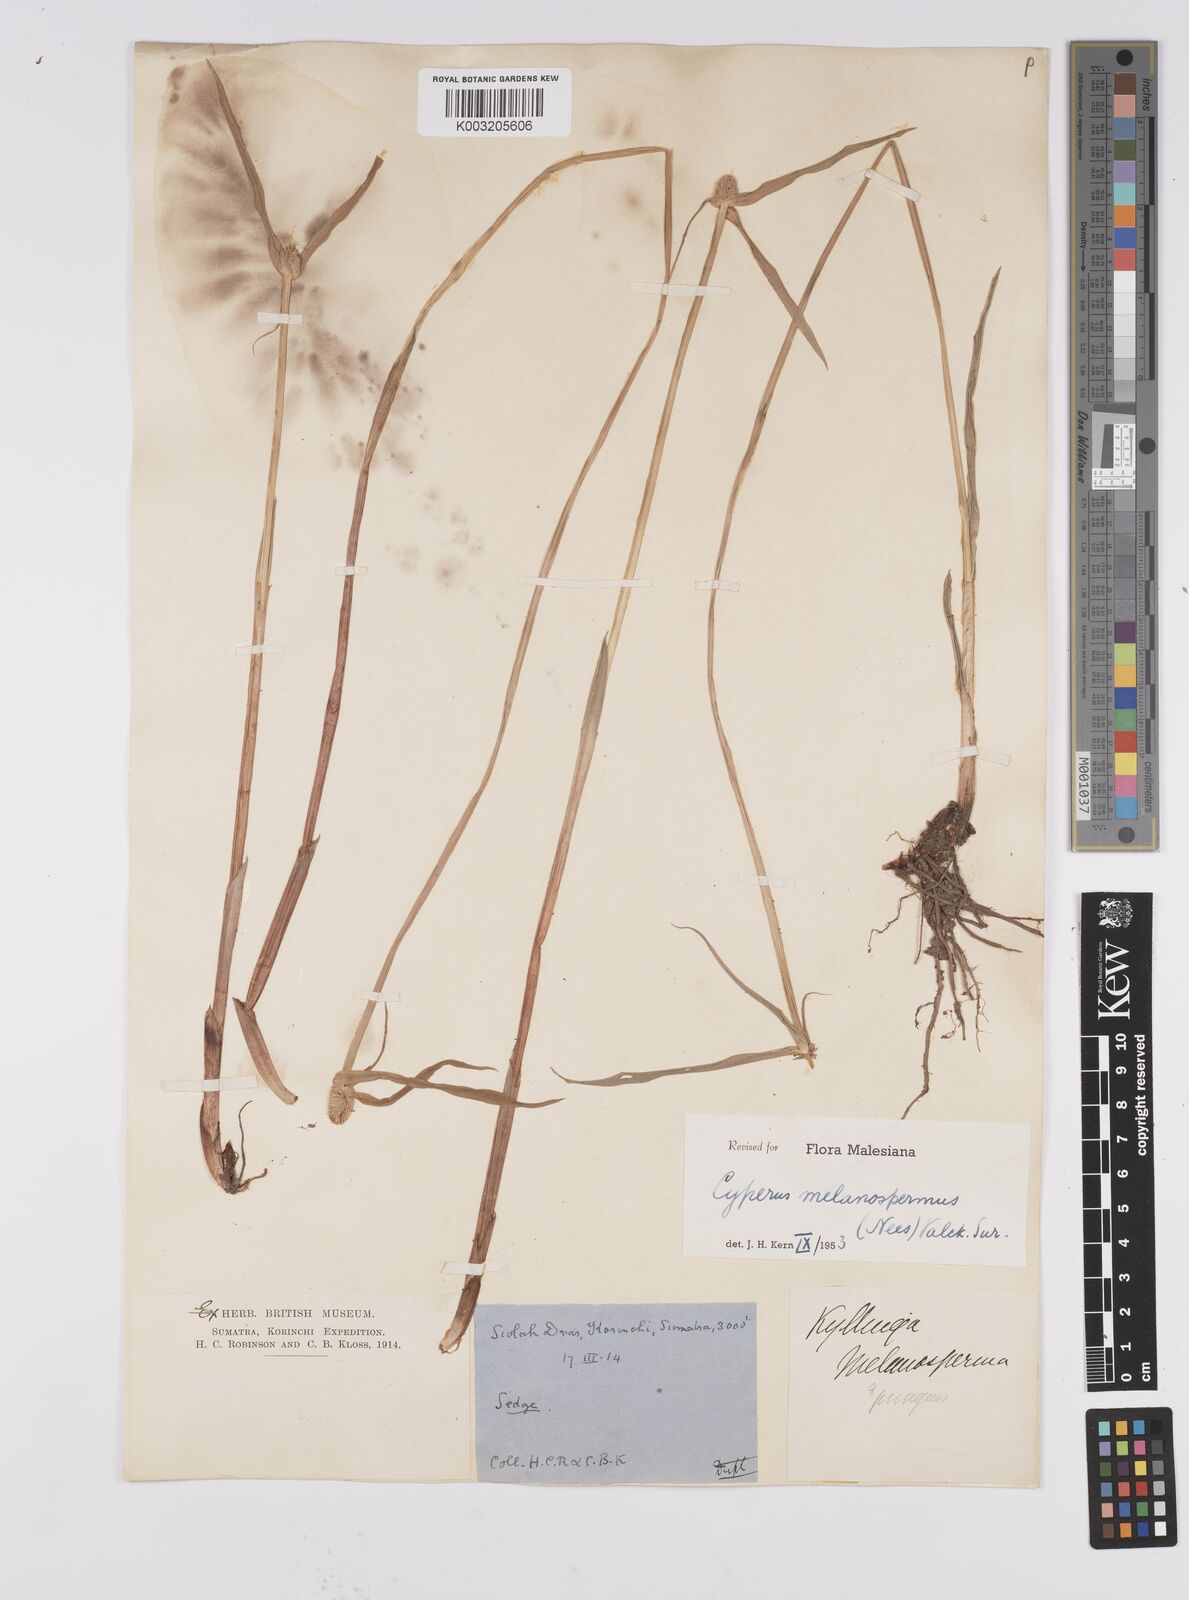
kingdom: Plantae
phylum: Tracheophyta
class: Liliopsida
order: Poales
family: Cyperaceae
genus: Cyperus
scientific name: Cyperus melanospermus
